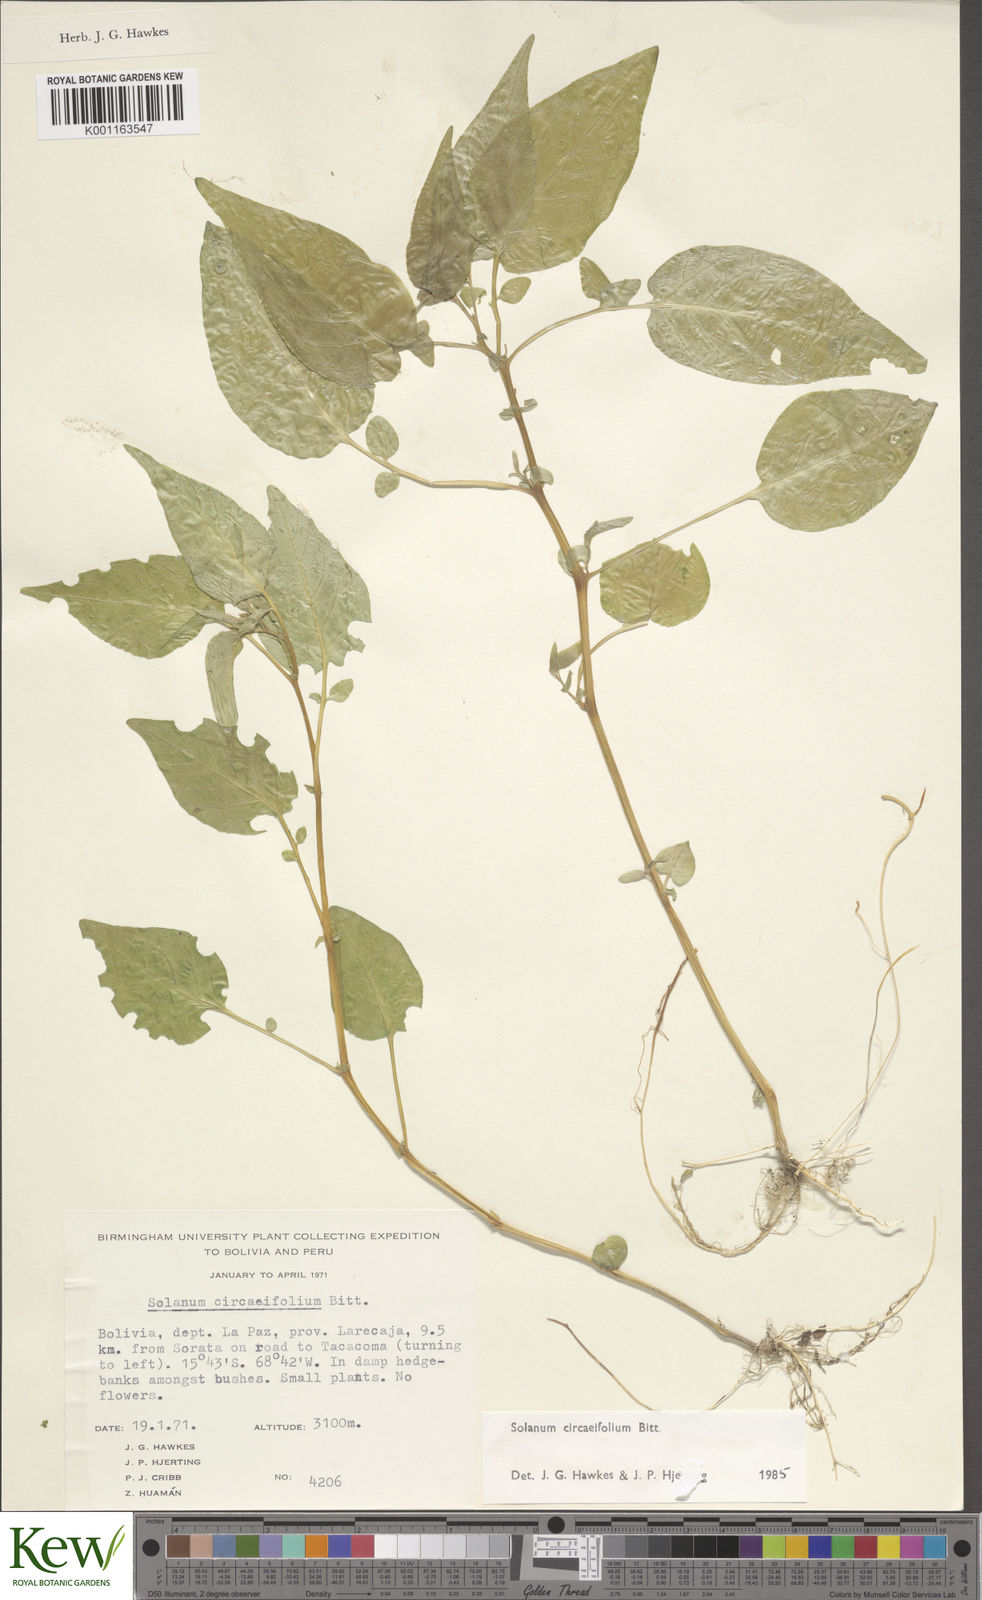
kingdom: Plantae
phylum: Tracheophyta
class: Magnoliopsida
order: Solanales
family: Solanaceae
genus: Solanum
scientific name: Solanum stipuloideum
